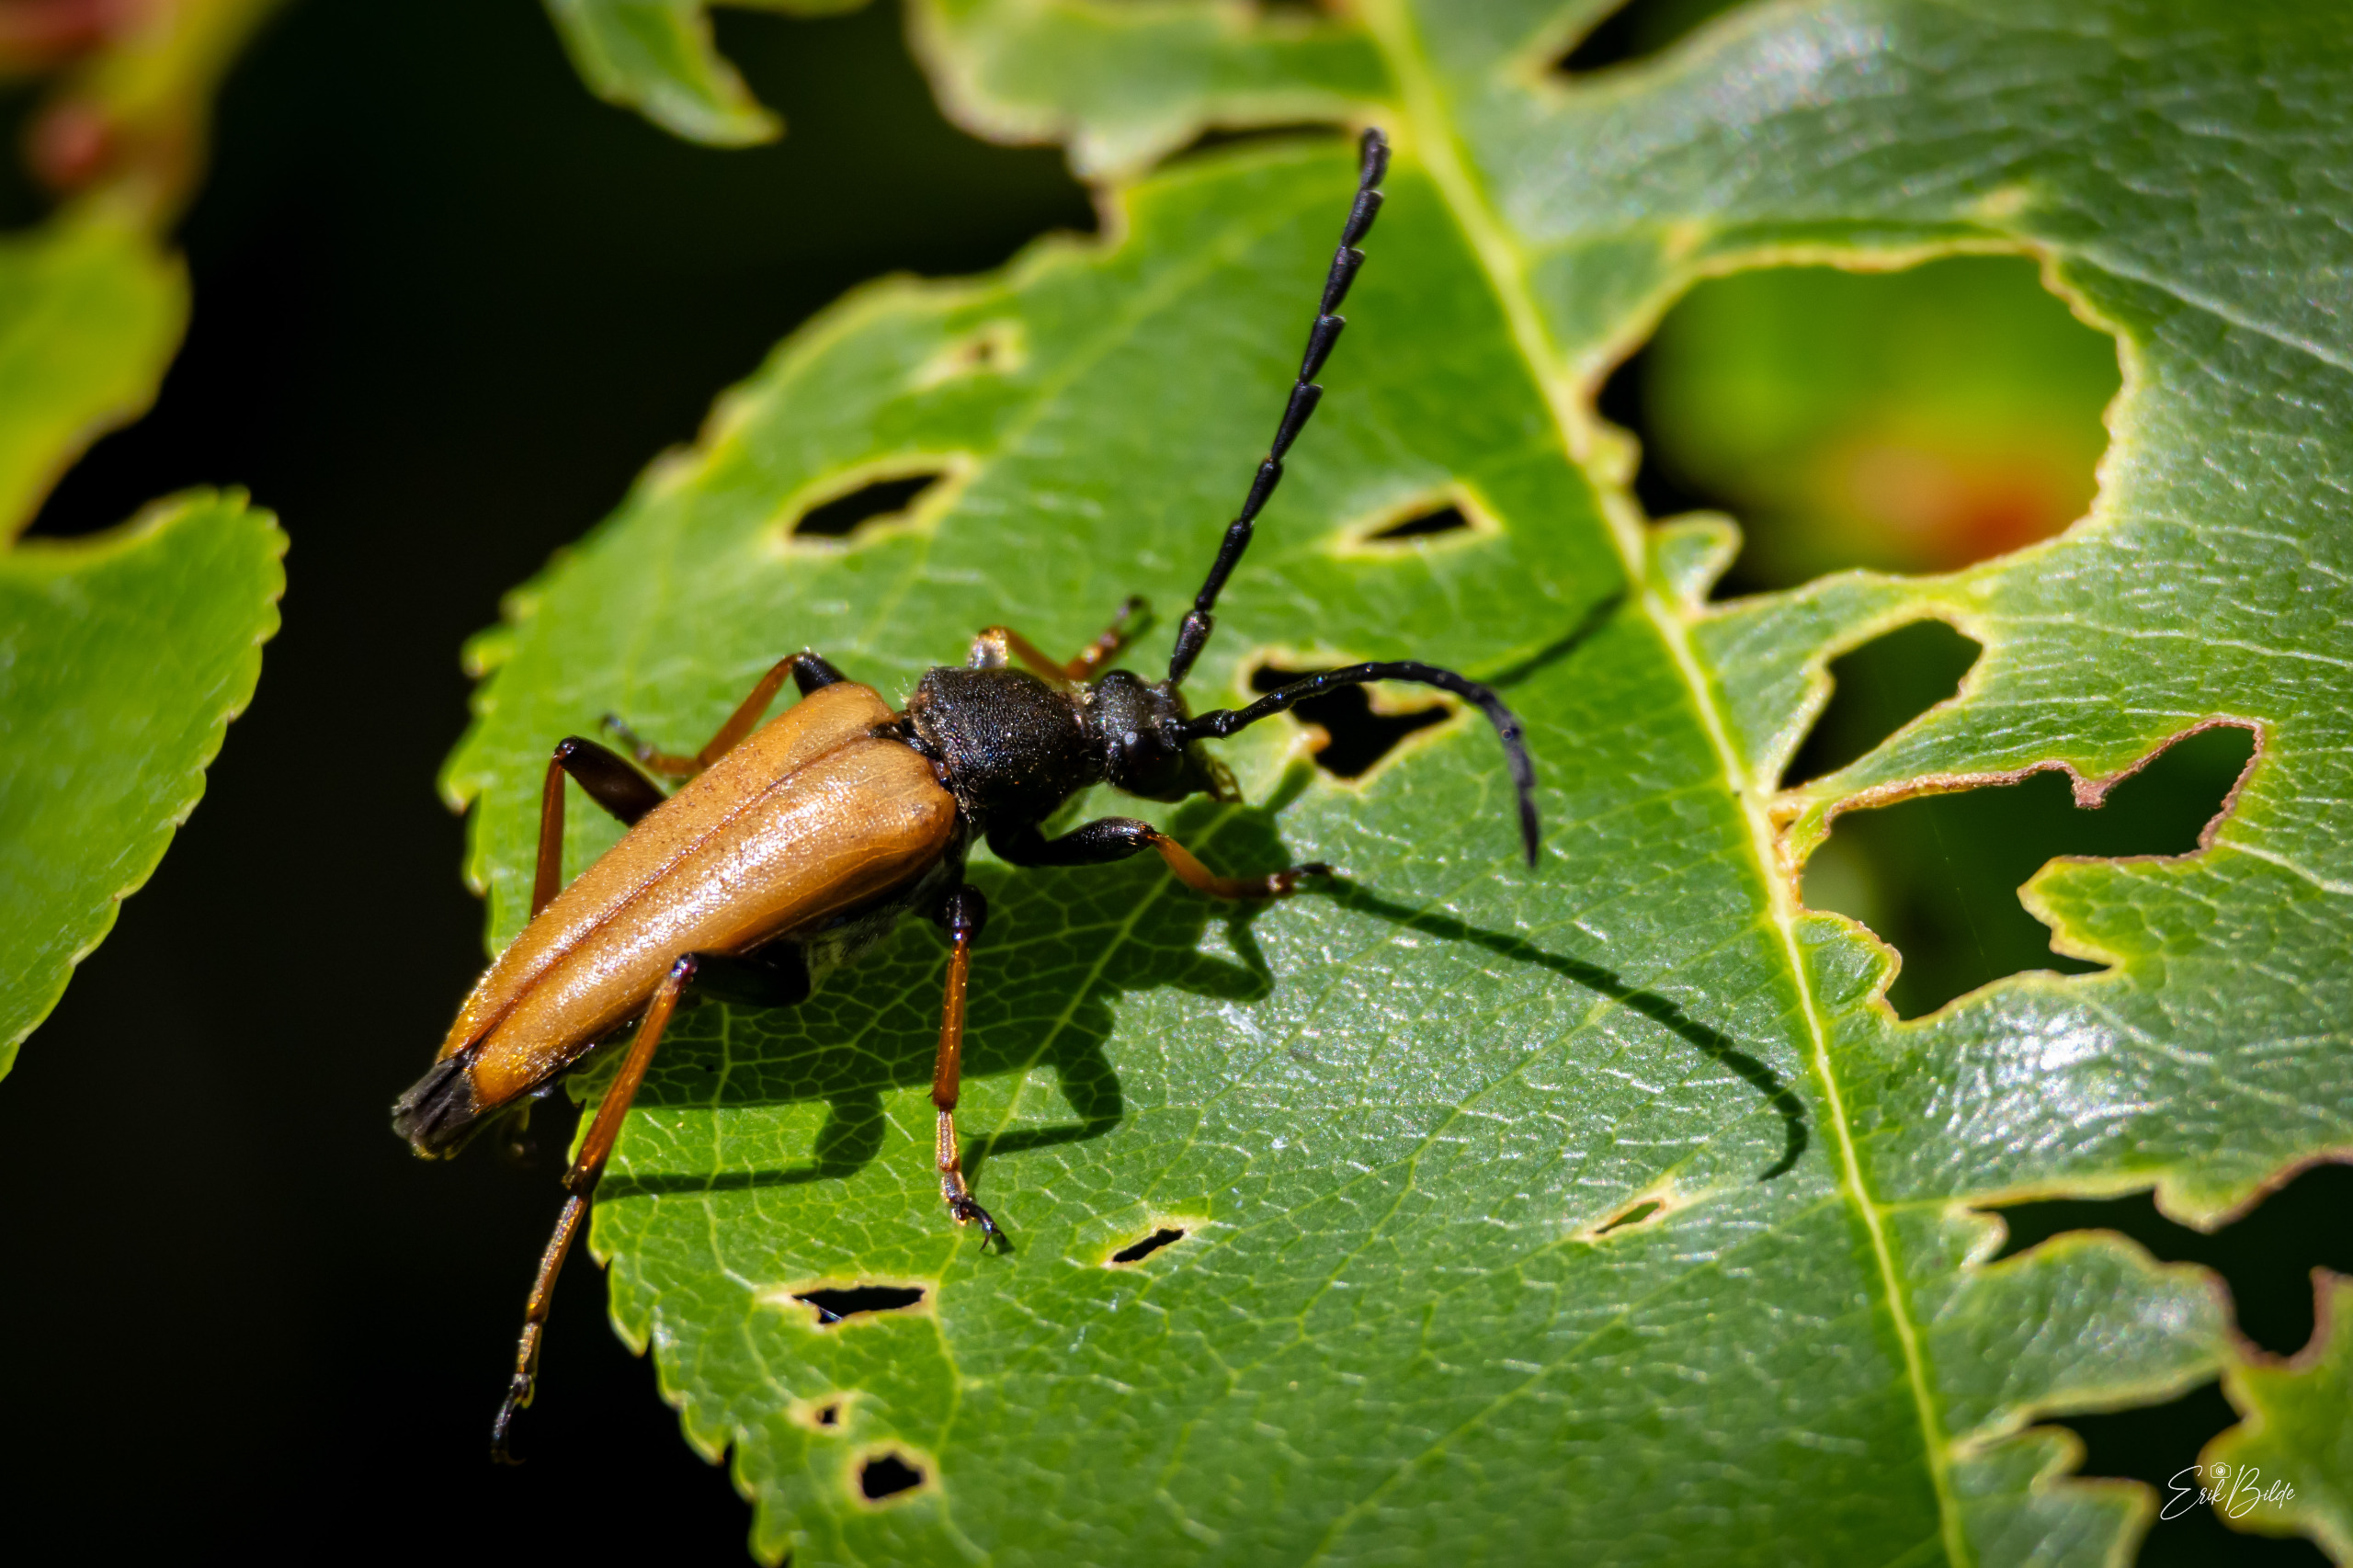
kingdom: Animalia
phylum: Arthropoda
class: Insecta
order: Coleoptera
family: Cerambycidae
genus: Stictoleptura
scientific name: Stictoleptura rubra
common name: Rød blomsterbuk
